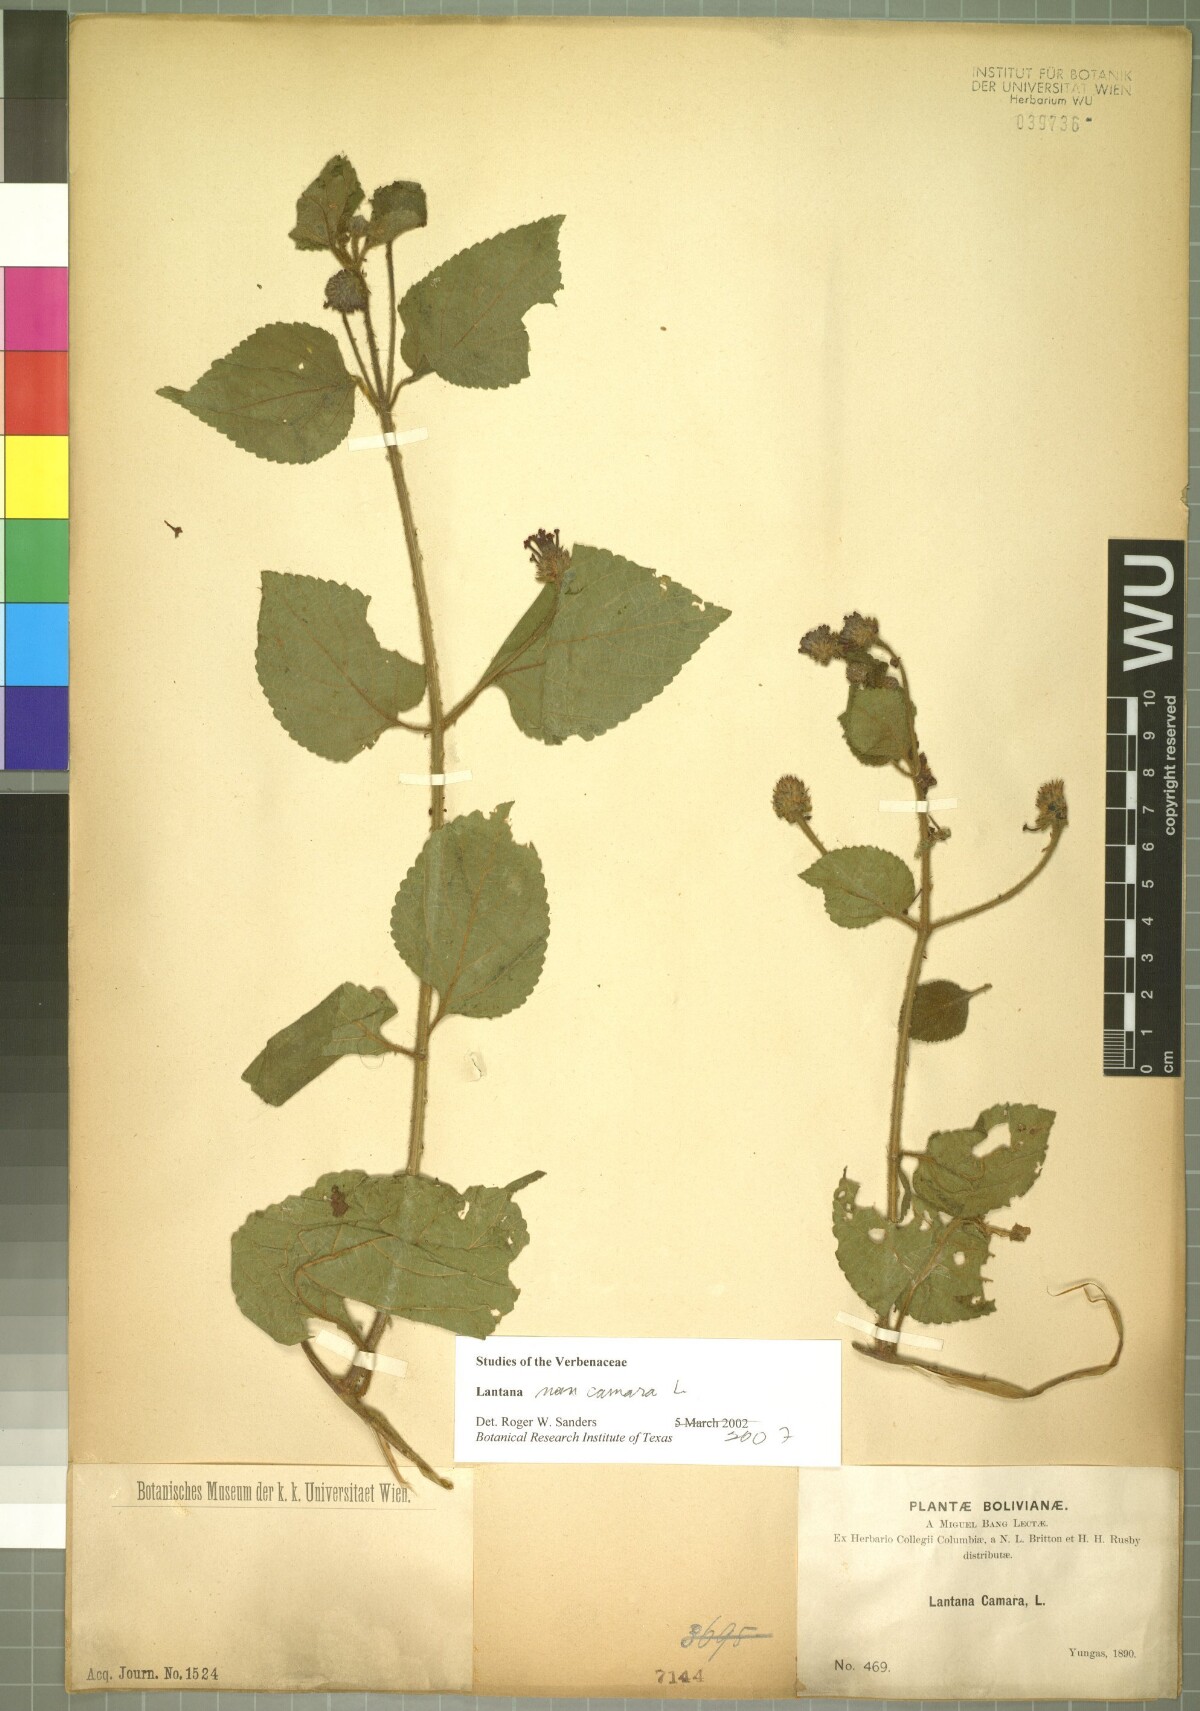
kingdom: Plantae
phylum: Tracheophyta
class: Magnoliopsida
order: Lamiales
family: Verbenaceae
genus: Lantana
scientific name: Lantana horrida
